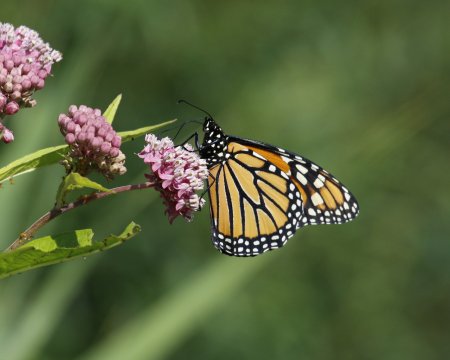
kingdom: Animalia
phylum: Arthropoda
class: Insecta
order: Lepidoptera
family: Nymphalidae
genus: Danaus
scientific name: Danaus plexippus
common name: Monarch
